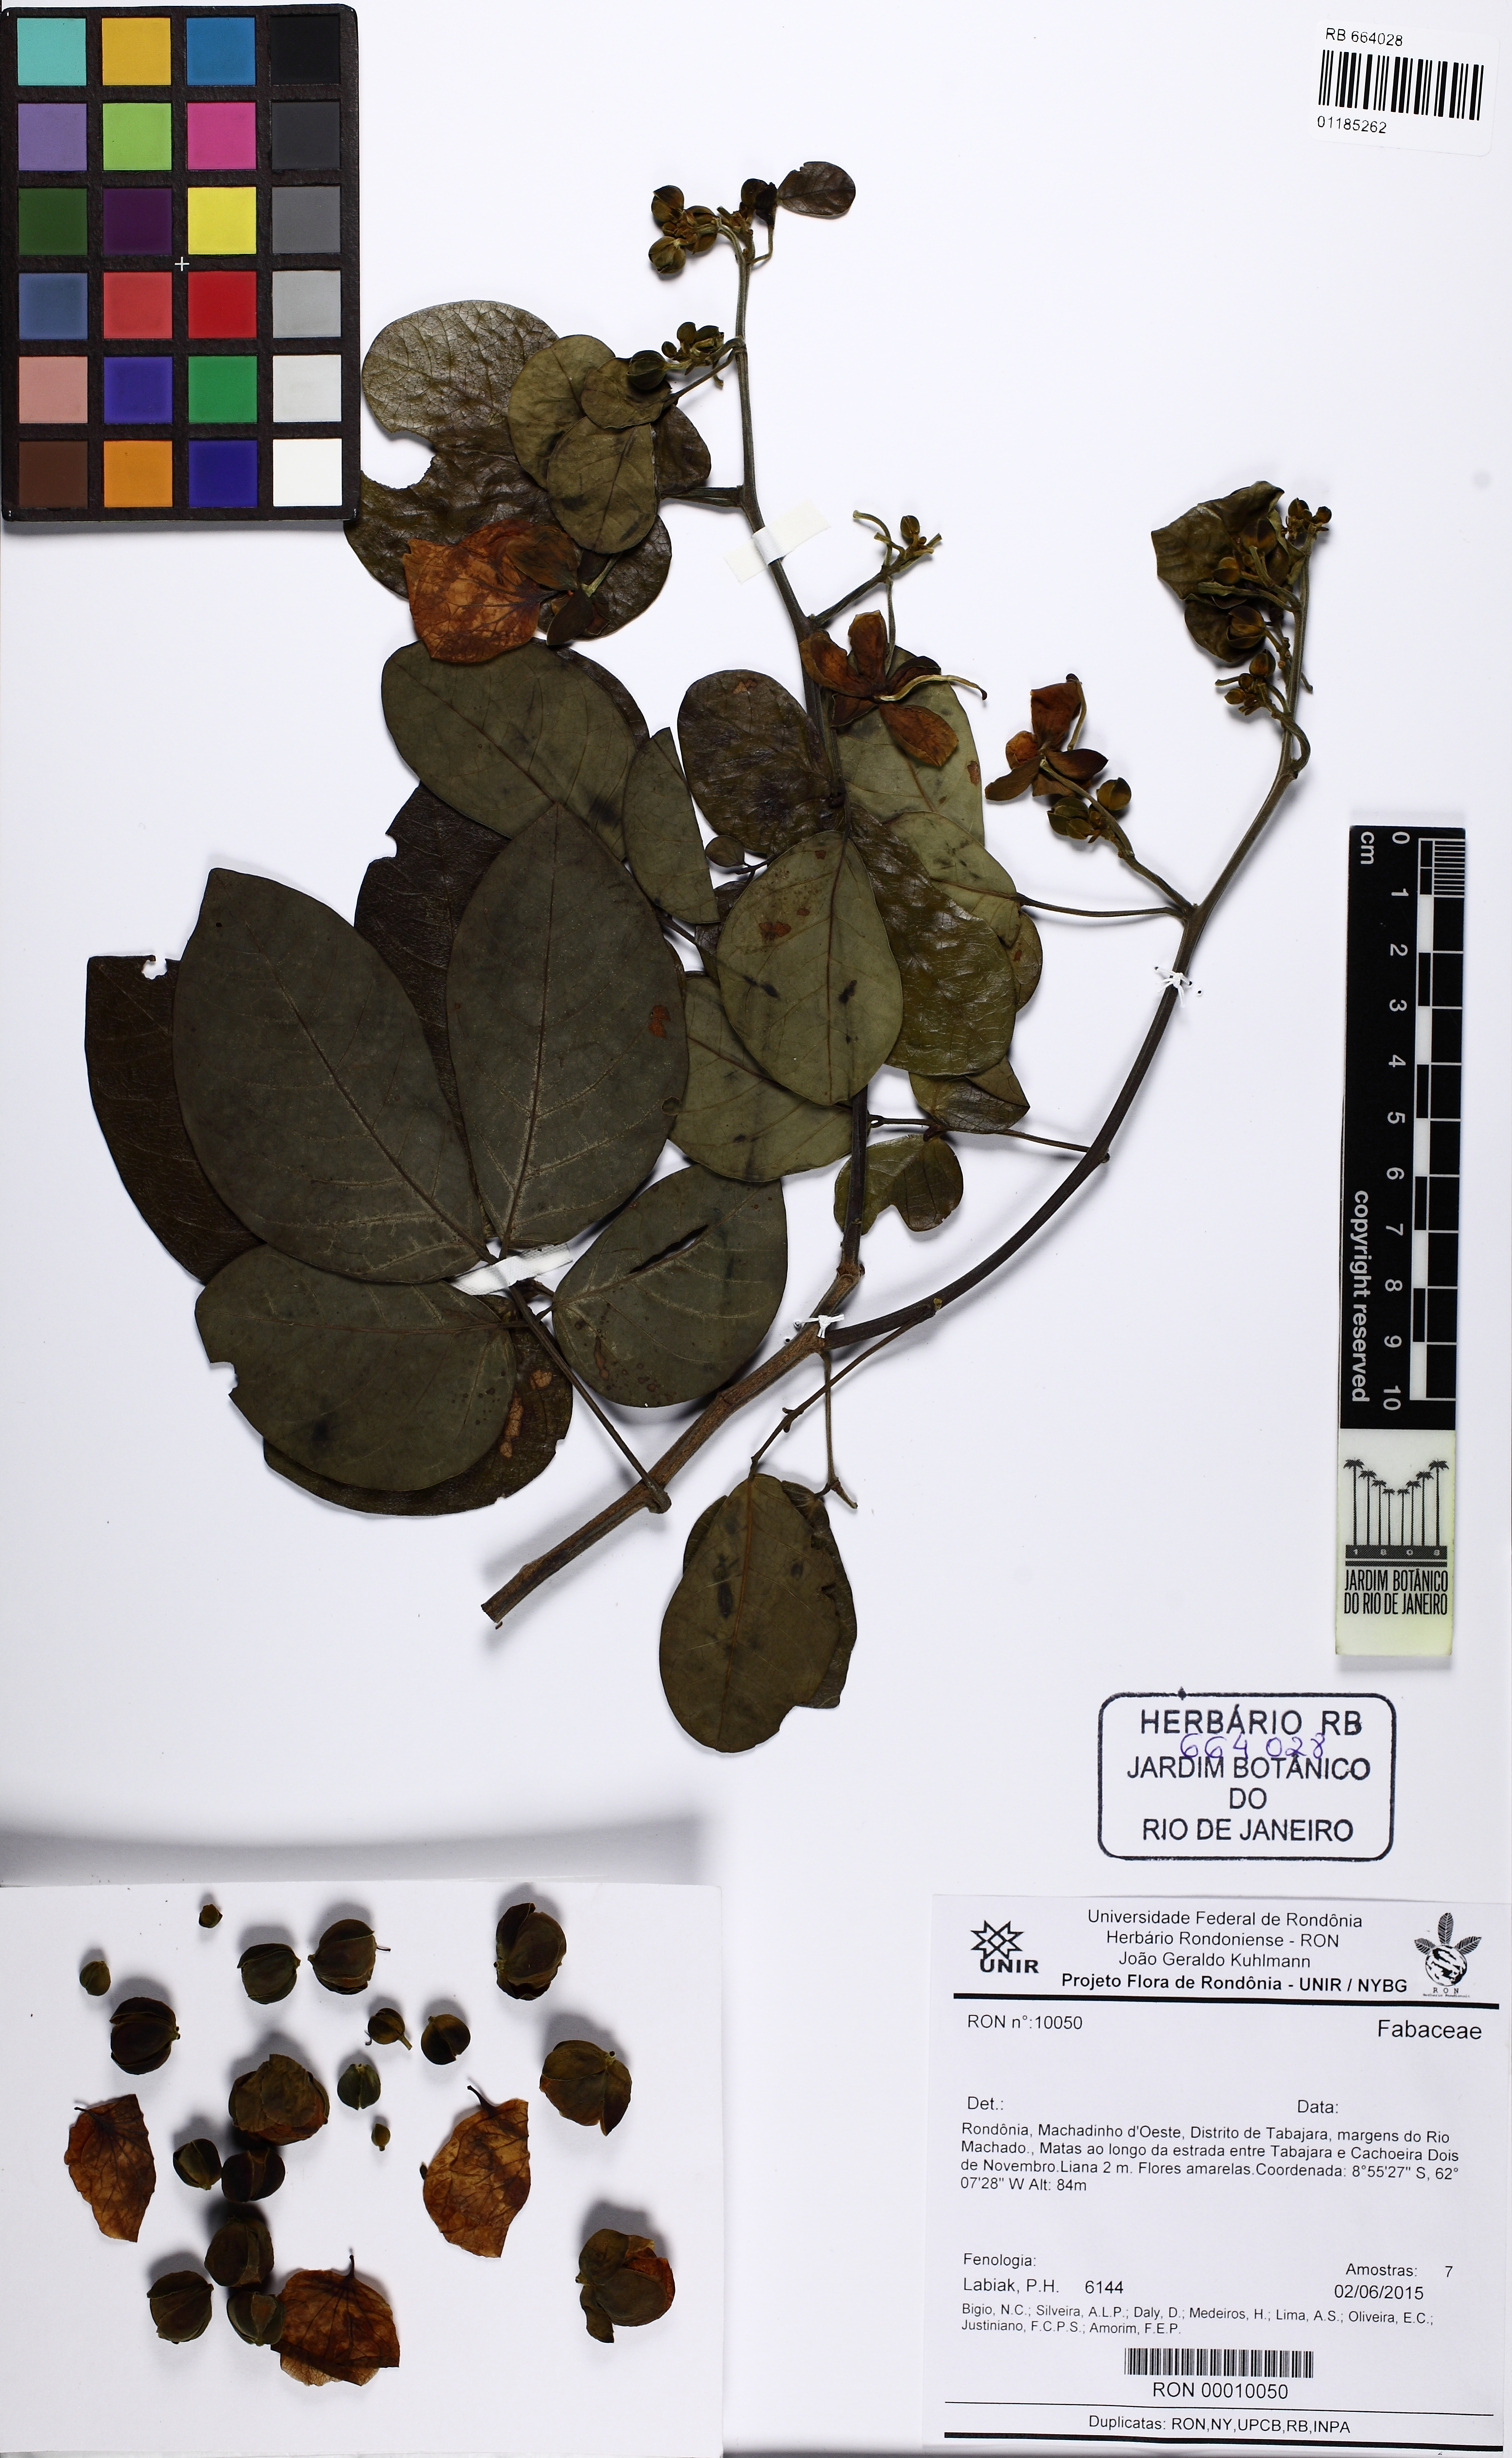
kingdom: Plantae
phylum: Tracheophyta
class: Magnoliopsida
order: Fabales
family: Fabaceae
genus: Senna
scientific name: Senna tapajozensis
